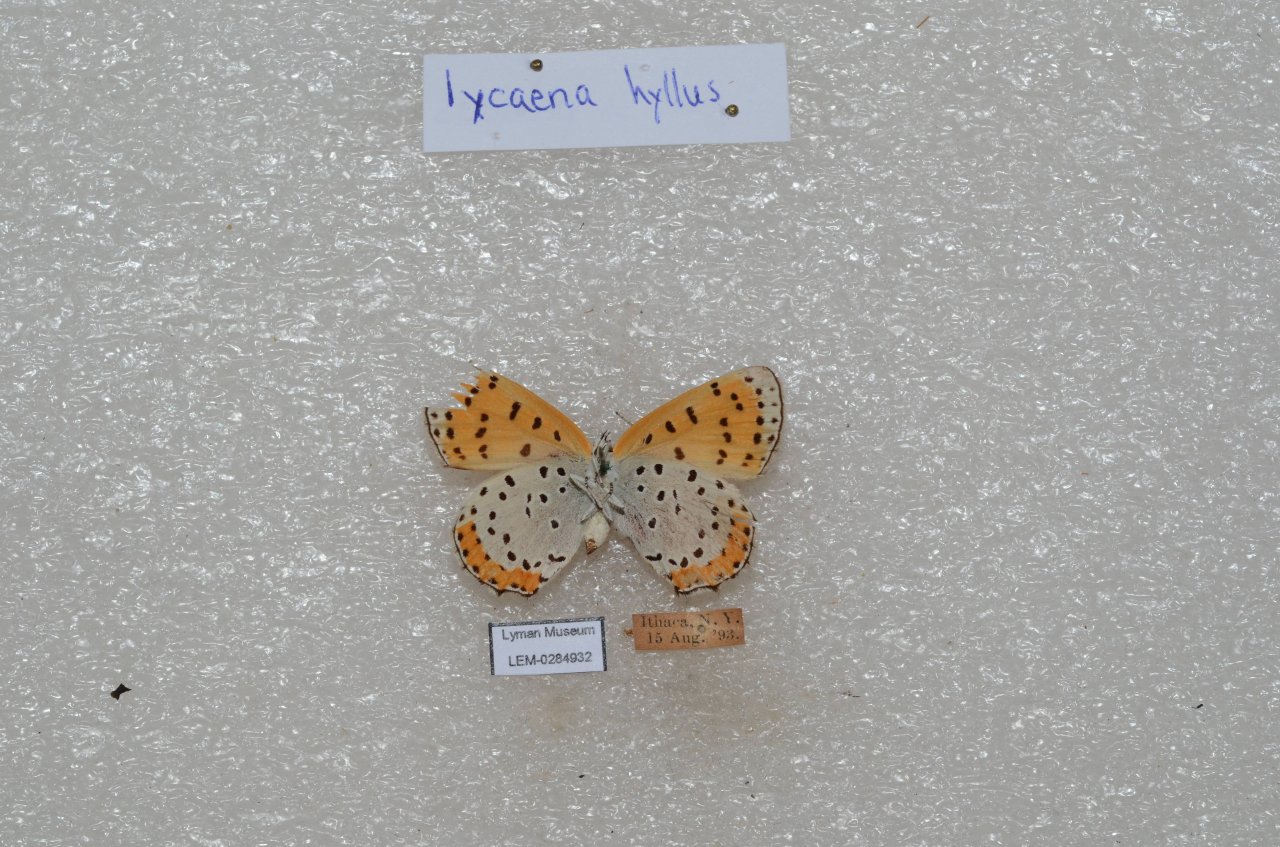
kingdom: Animalia
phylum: Arthropoda
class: Insecta
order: Lepidoptera
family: Sesiidae
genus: Sesia
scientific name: Sesia Lycaena hyllus
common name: Bronze Copper
